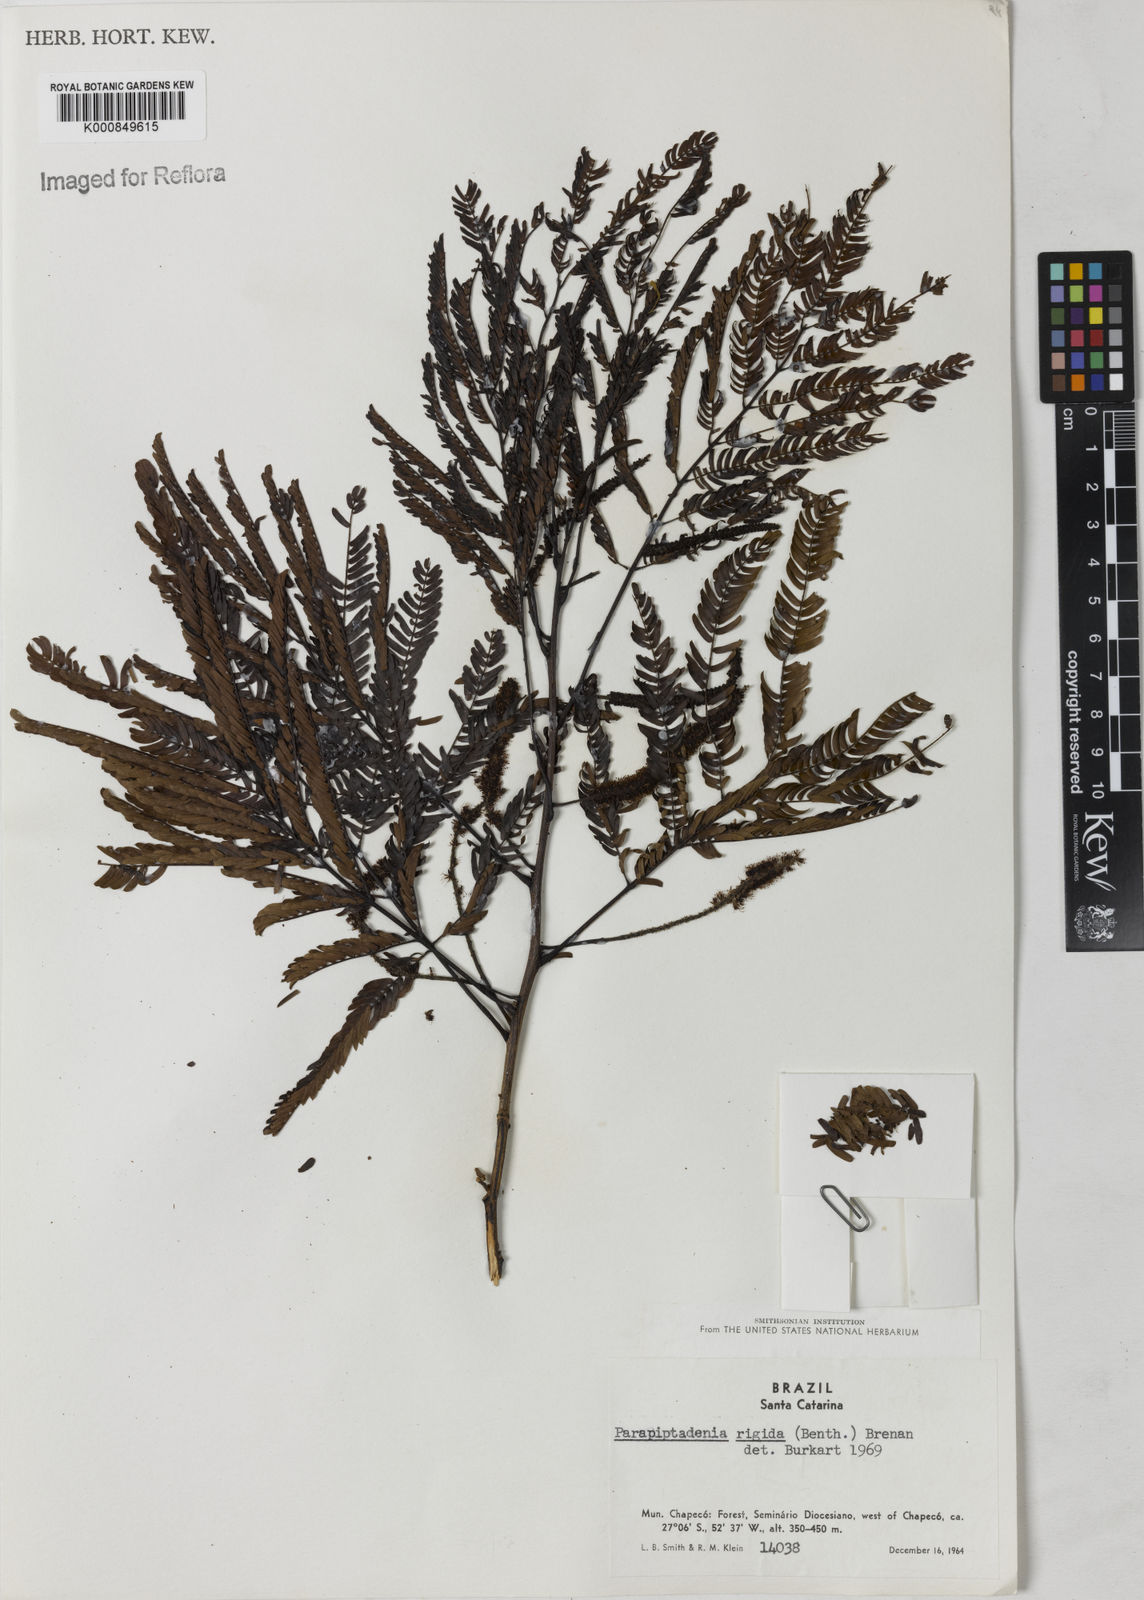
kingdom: Plantae
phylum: Tracheophyta
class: Magnoliopsida
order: Fabales
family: Fabaceae
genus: Parapiptadenia
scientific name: Parapiptadenia rigida
